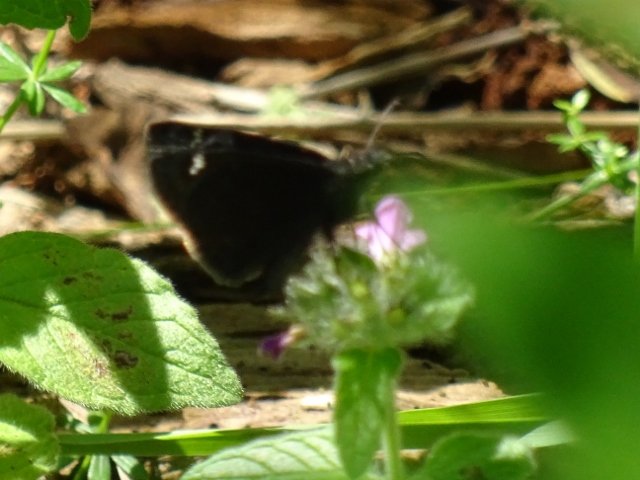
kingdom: Animalia
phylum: Arthropoda
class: Insecta
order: Lepidoptera
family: Hesperiidae
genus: Gesta
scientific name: Gesta
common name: Wild Indigo Duskywing
